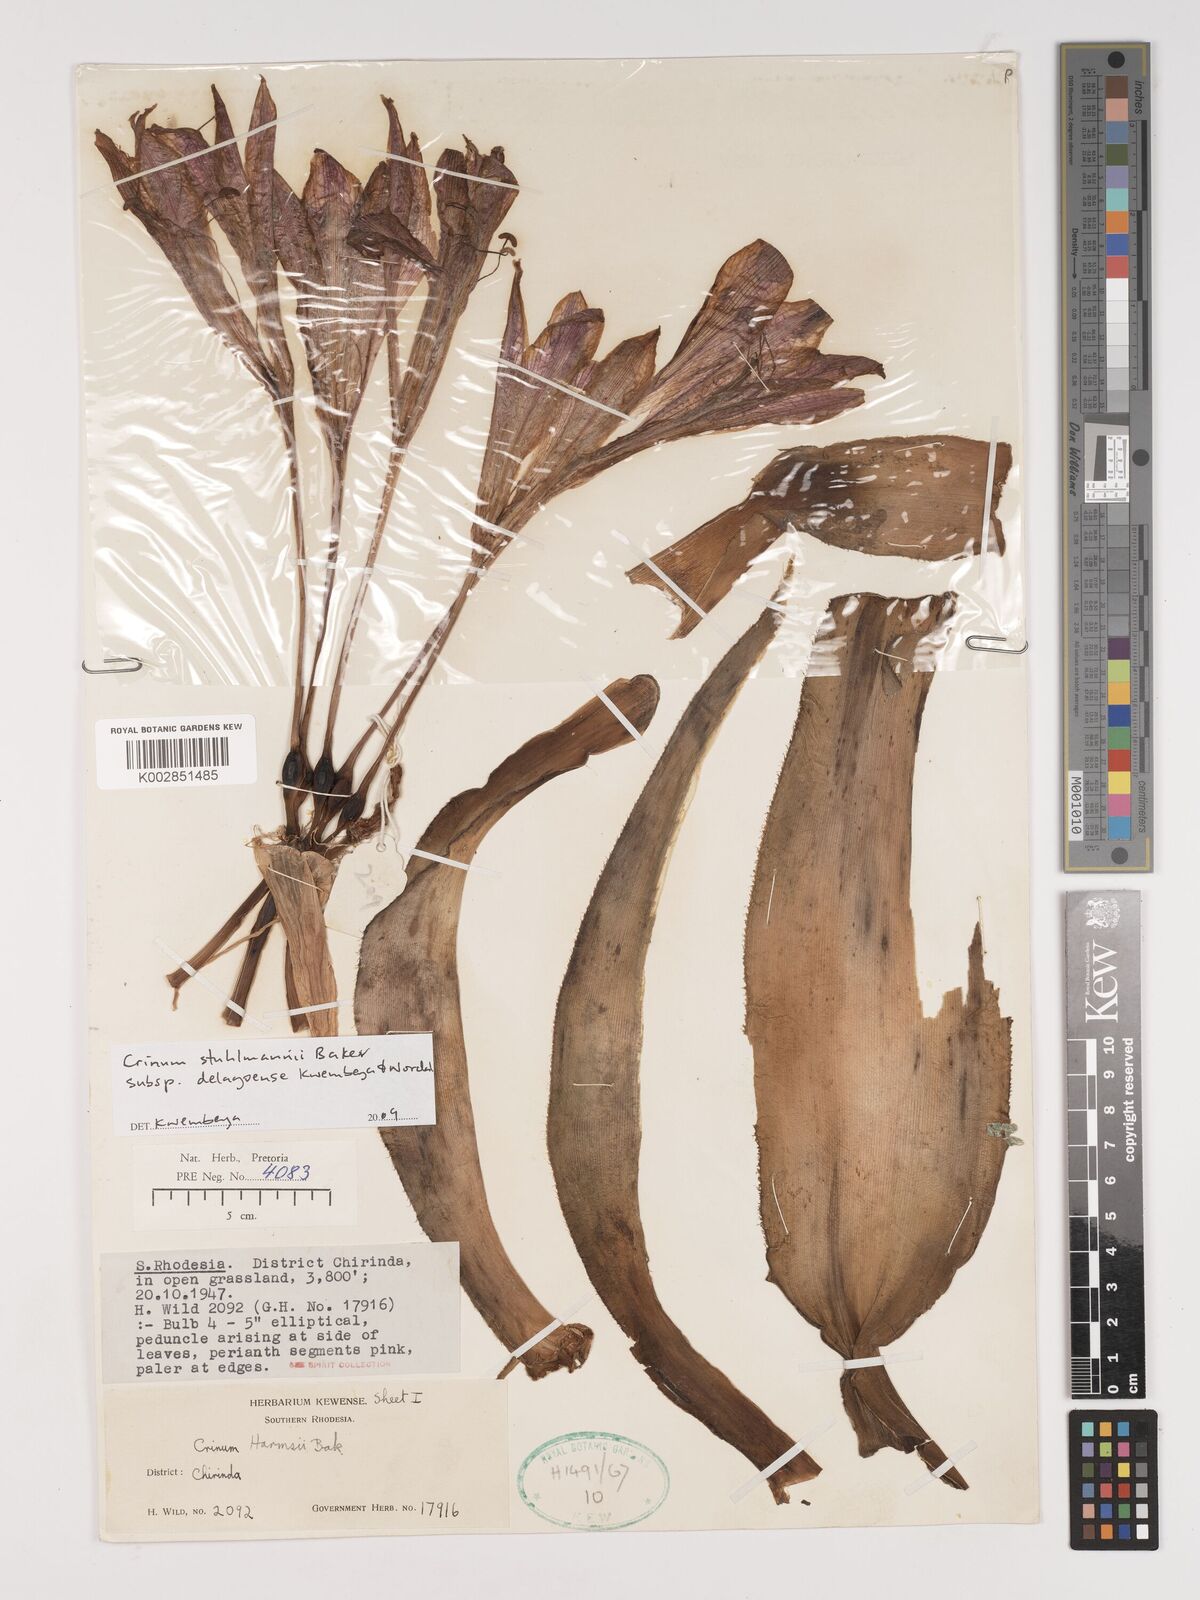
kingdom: Plantae
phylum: Tracheophyta
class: Liliopsida
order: Asparagales
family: Amaryllidaceae
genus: Crinum
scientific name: Crinum stuhlmannii
